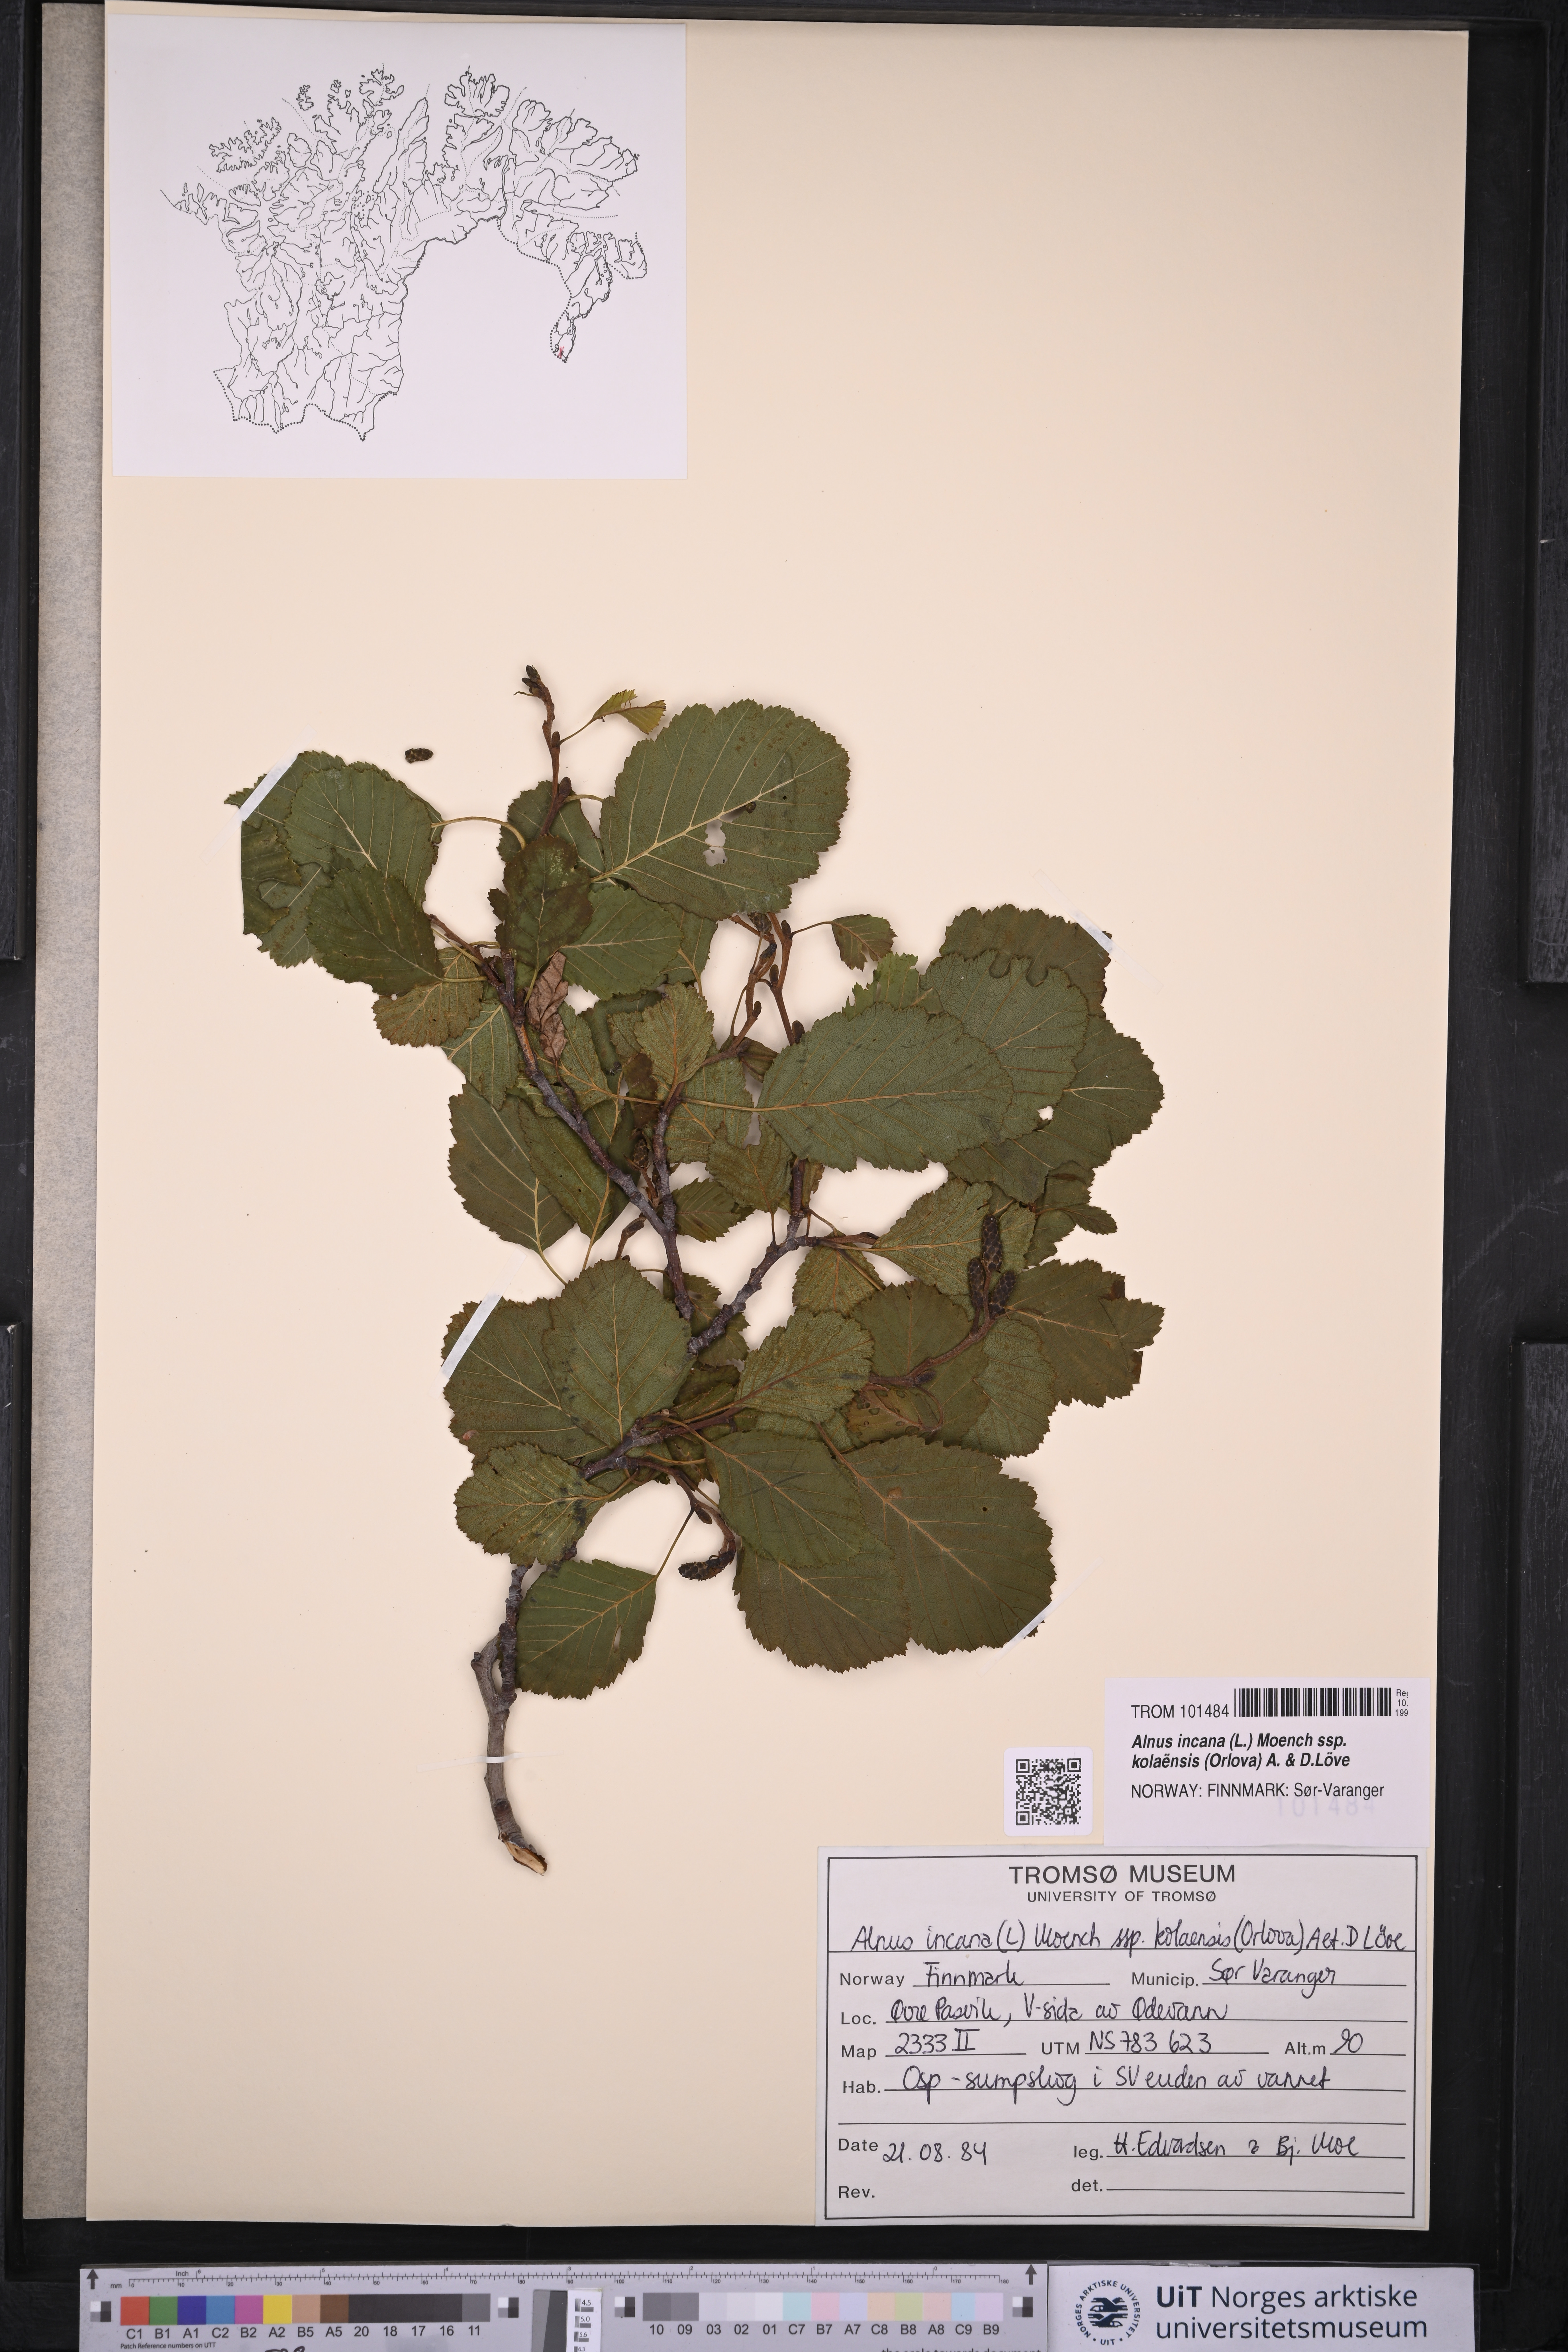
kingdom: Plantae
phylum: Tracheophyta
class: Magnoliopsida
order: Fagales
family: Betulaceae
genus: Alnus
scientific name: Alnus incana
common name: Grey alder
